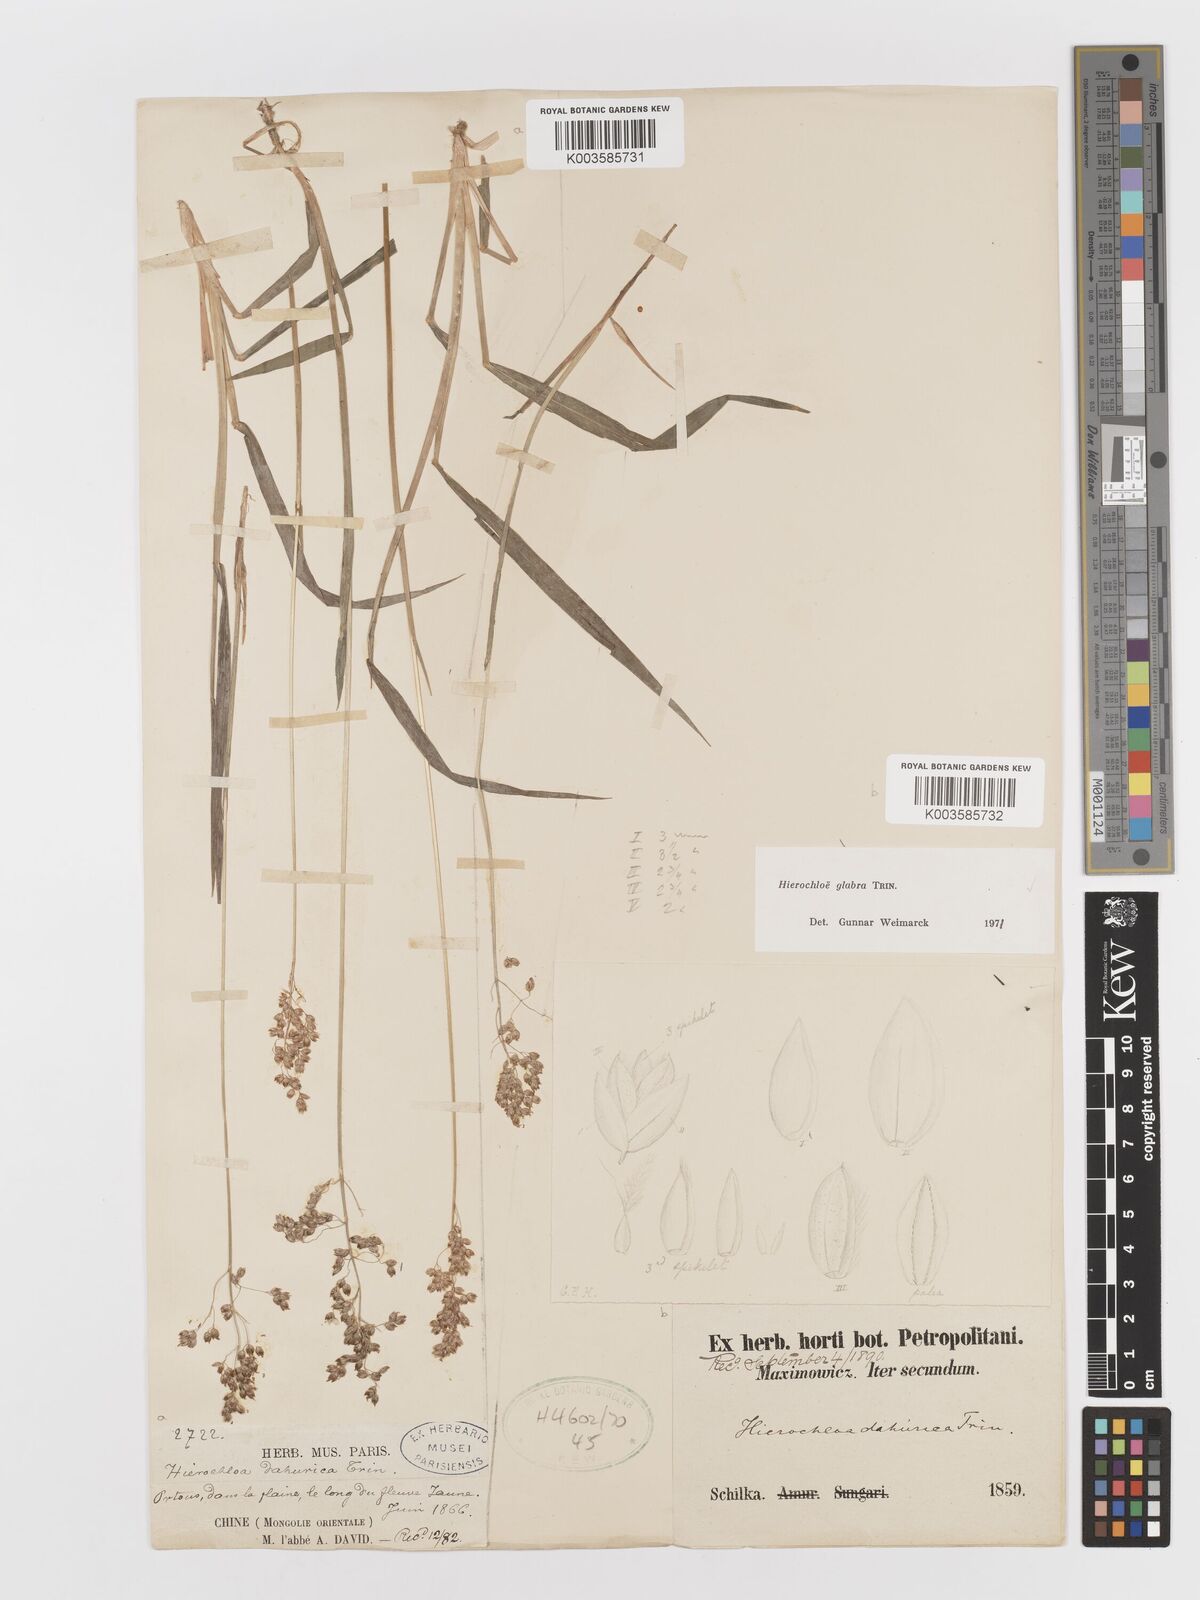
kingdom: Plantae
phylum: Tracheophyta
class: Liliopsida
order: Poales
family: Poaceae
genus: Anthoxanthum
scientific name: Anthoxanthum glabrum
